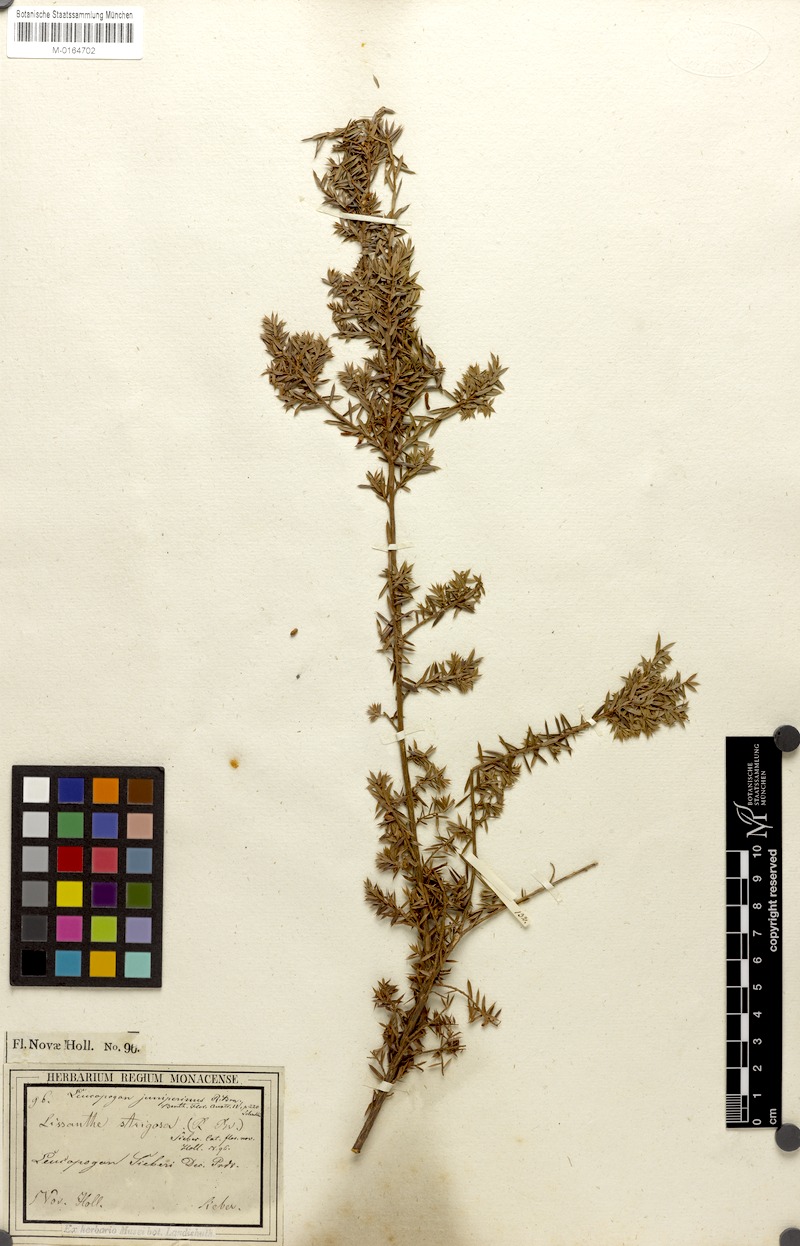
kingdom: Plantae
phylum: Tracheophyta
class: Magnoliopsida
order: Ericales
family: Ericaceae
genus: Styphelia
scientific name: Styphelia sieberi
